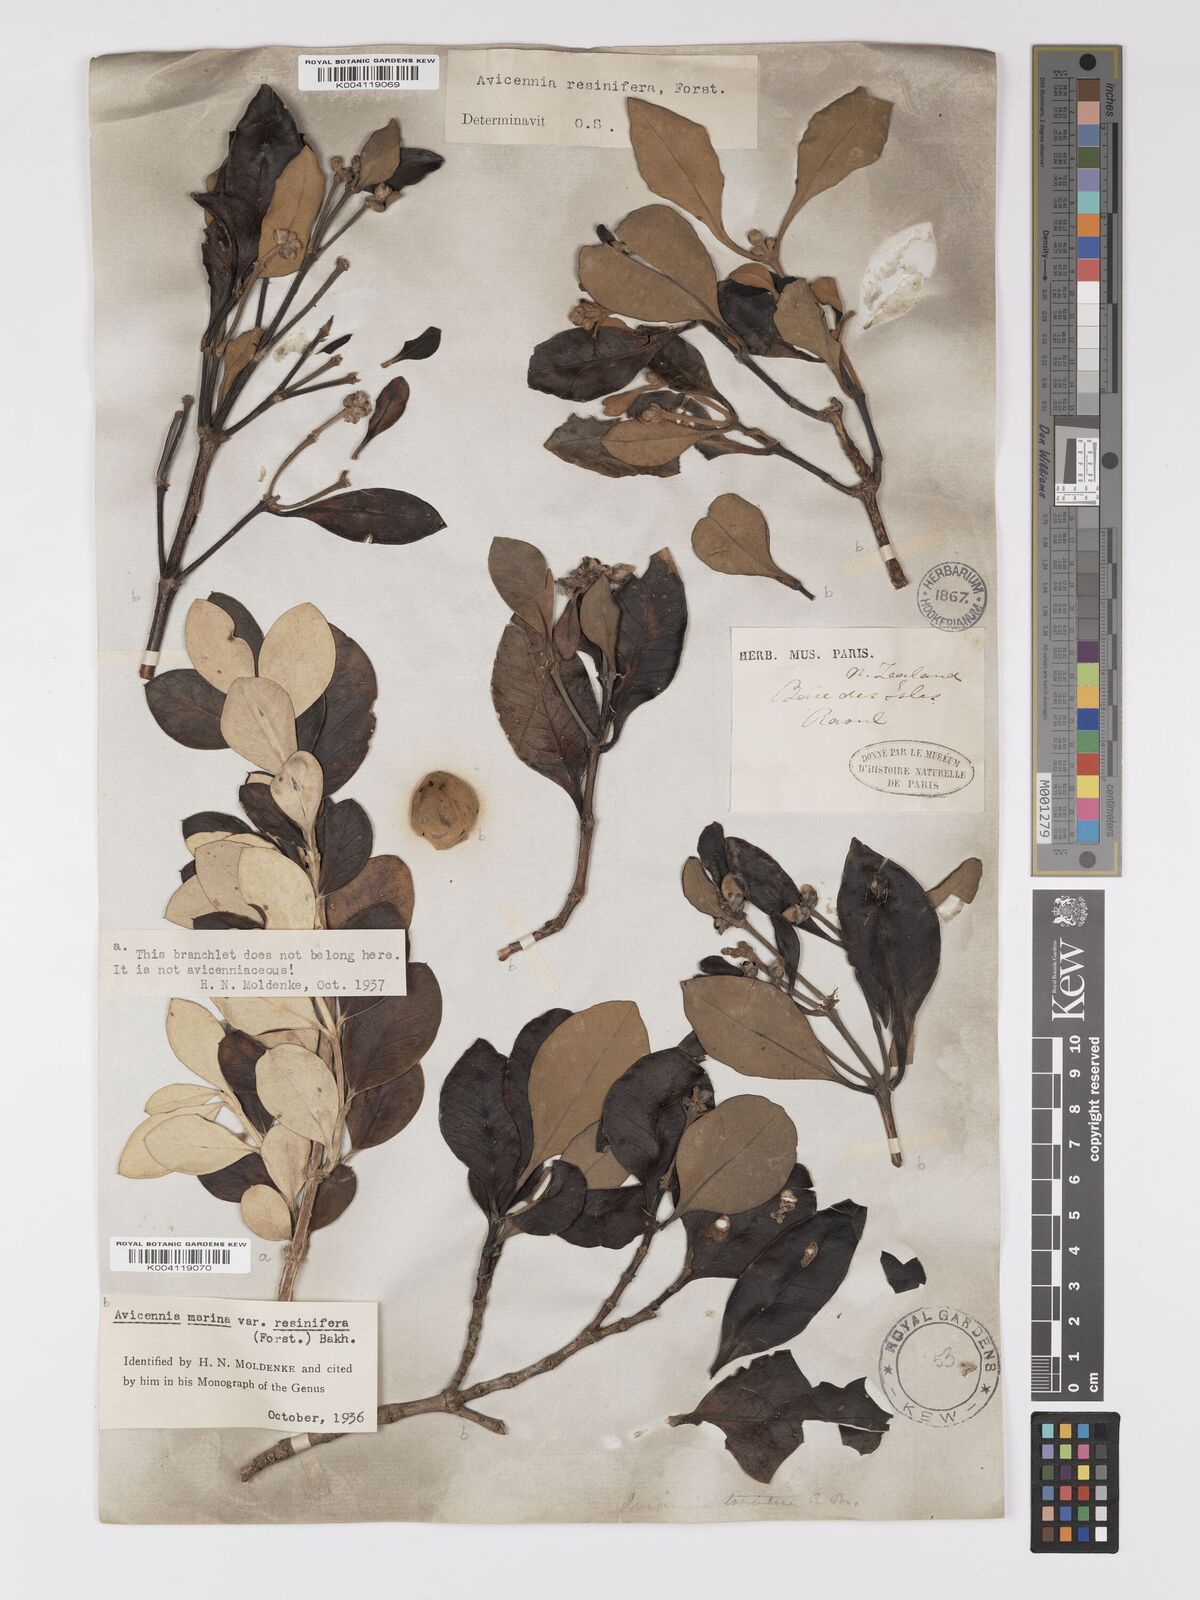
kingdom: Plantae
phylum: Tracheophyta
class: Magnoliopsida
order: Lamiales
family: Acanthaceae
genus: Avicennia
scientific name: Avicennia marina
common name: Gray mangrove
